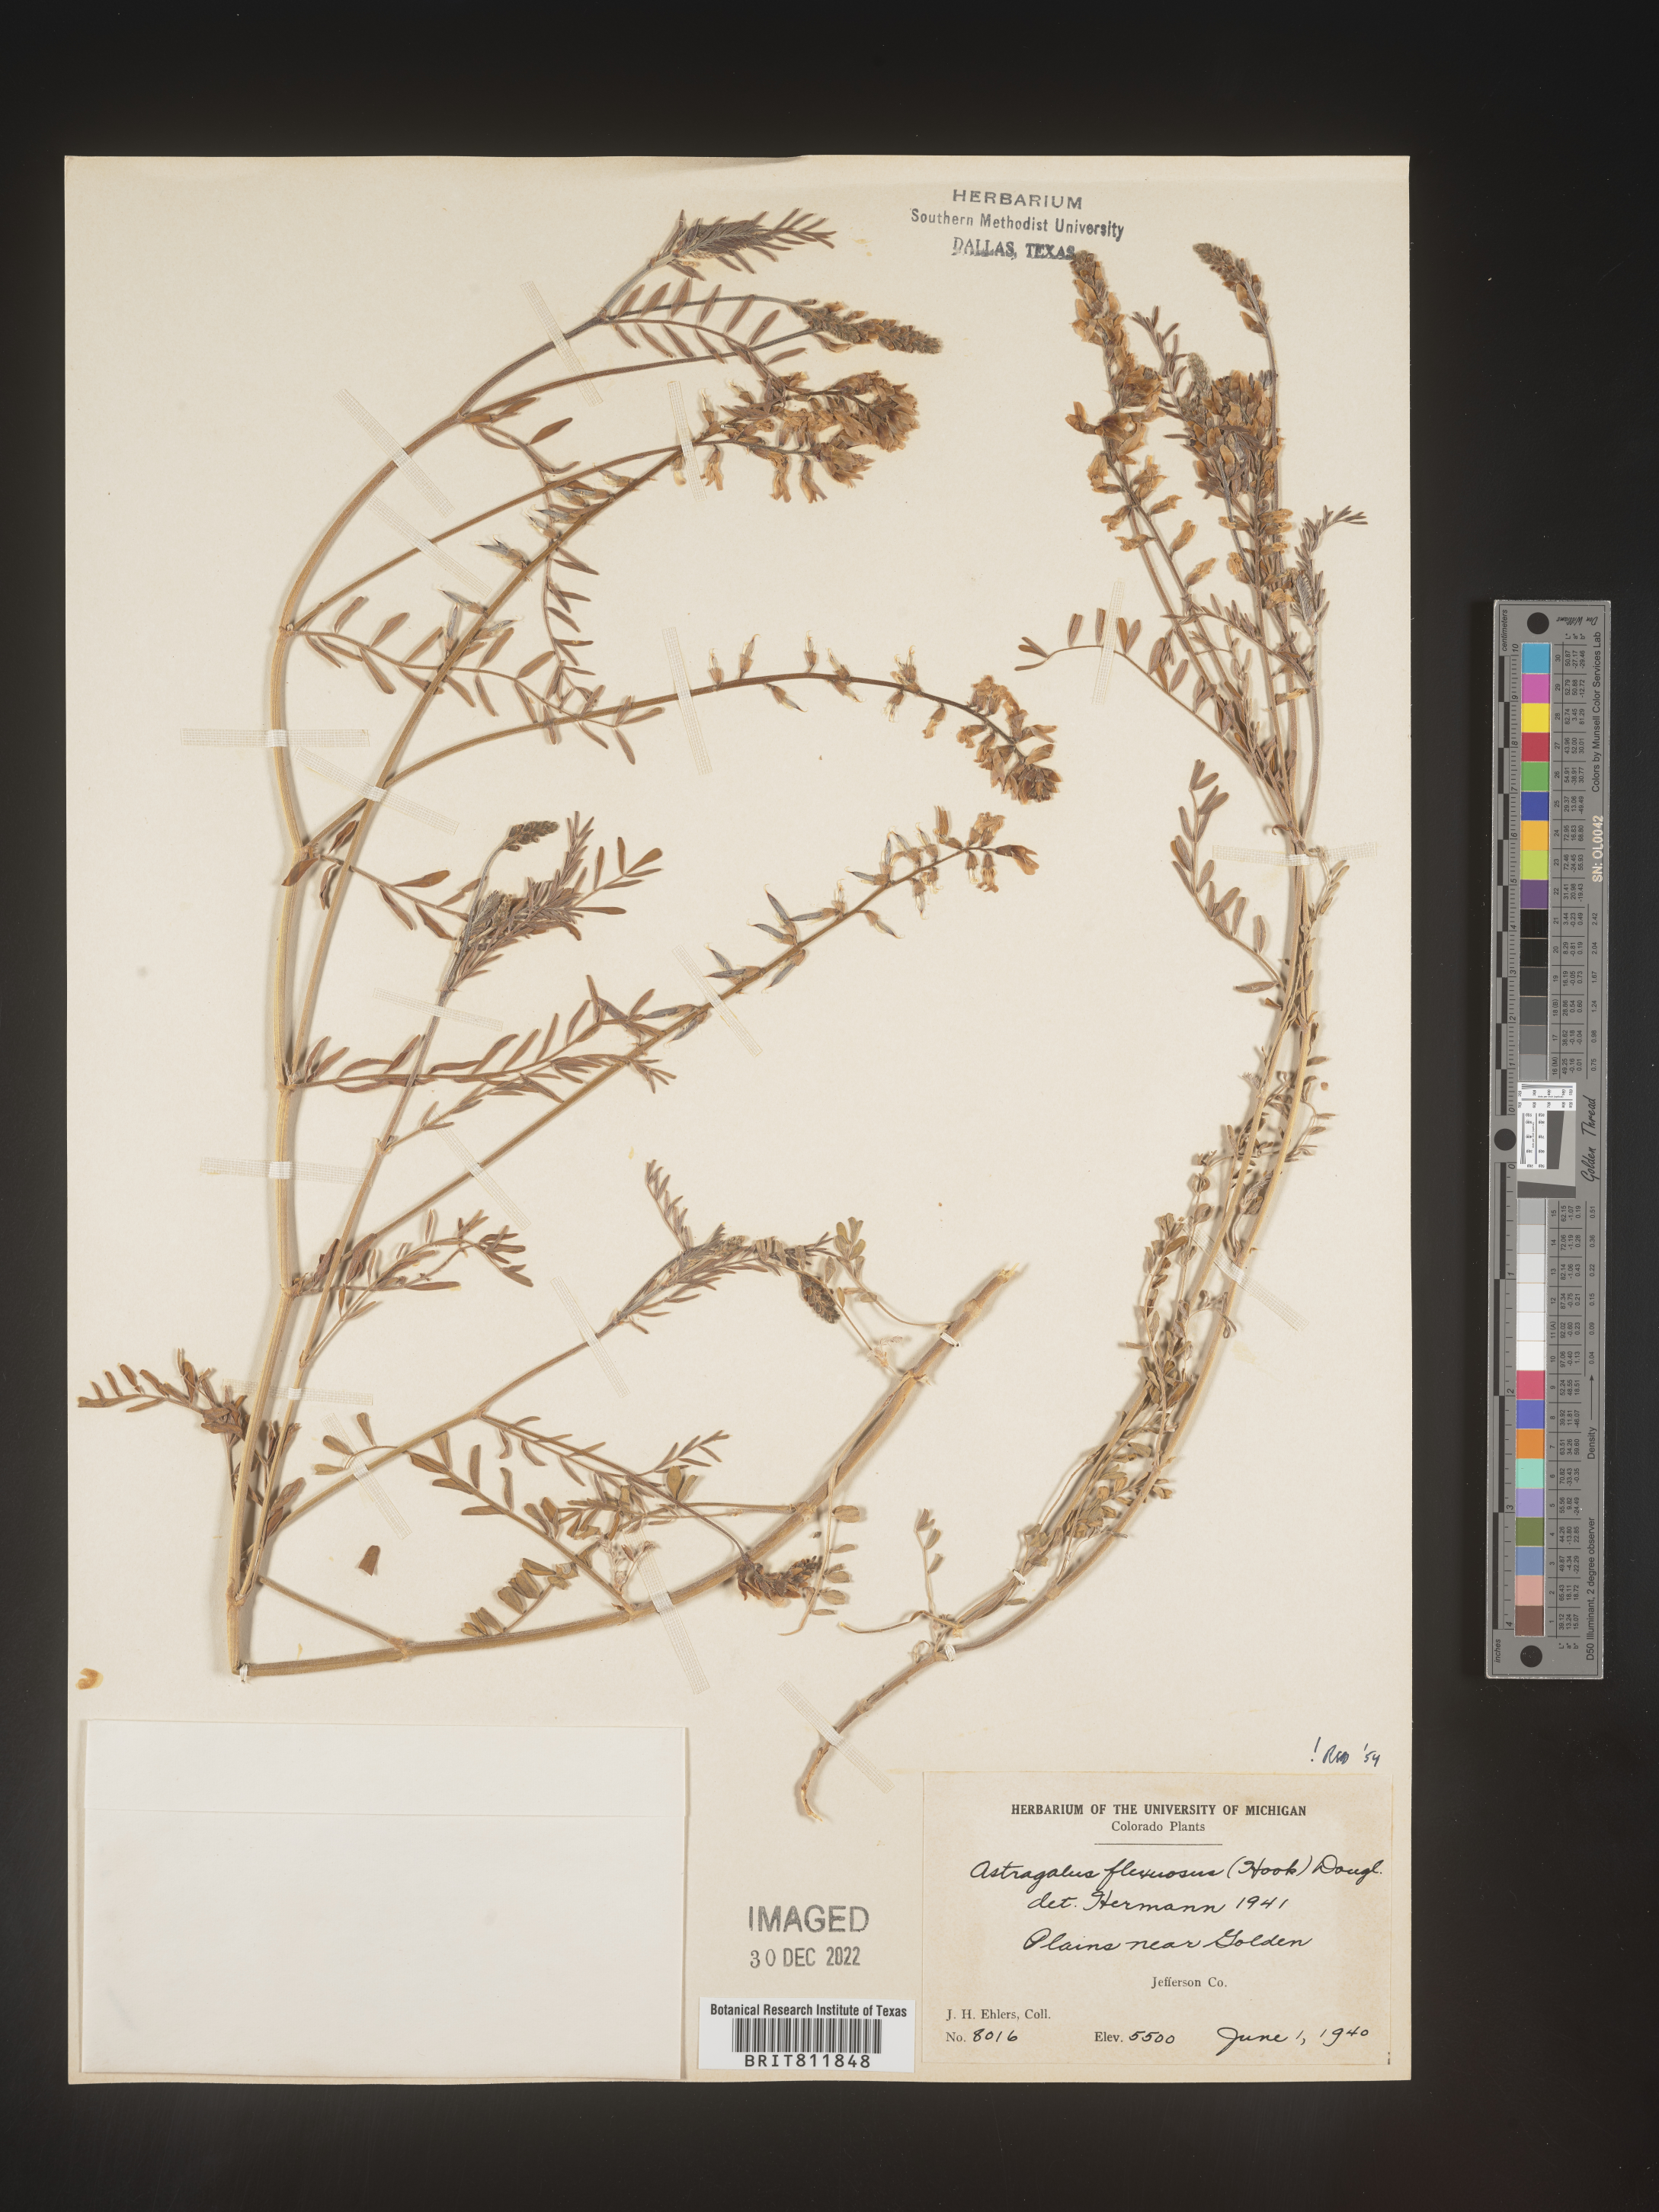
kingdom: Plantae
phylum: Tracheophyta
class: Magnoliopsida
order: Fabales
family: Fabaceae
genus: Astragalus
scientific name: Astragalus flexuosus
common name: Pliant milk-vetch
